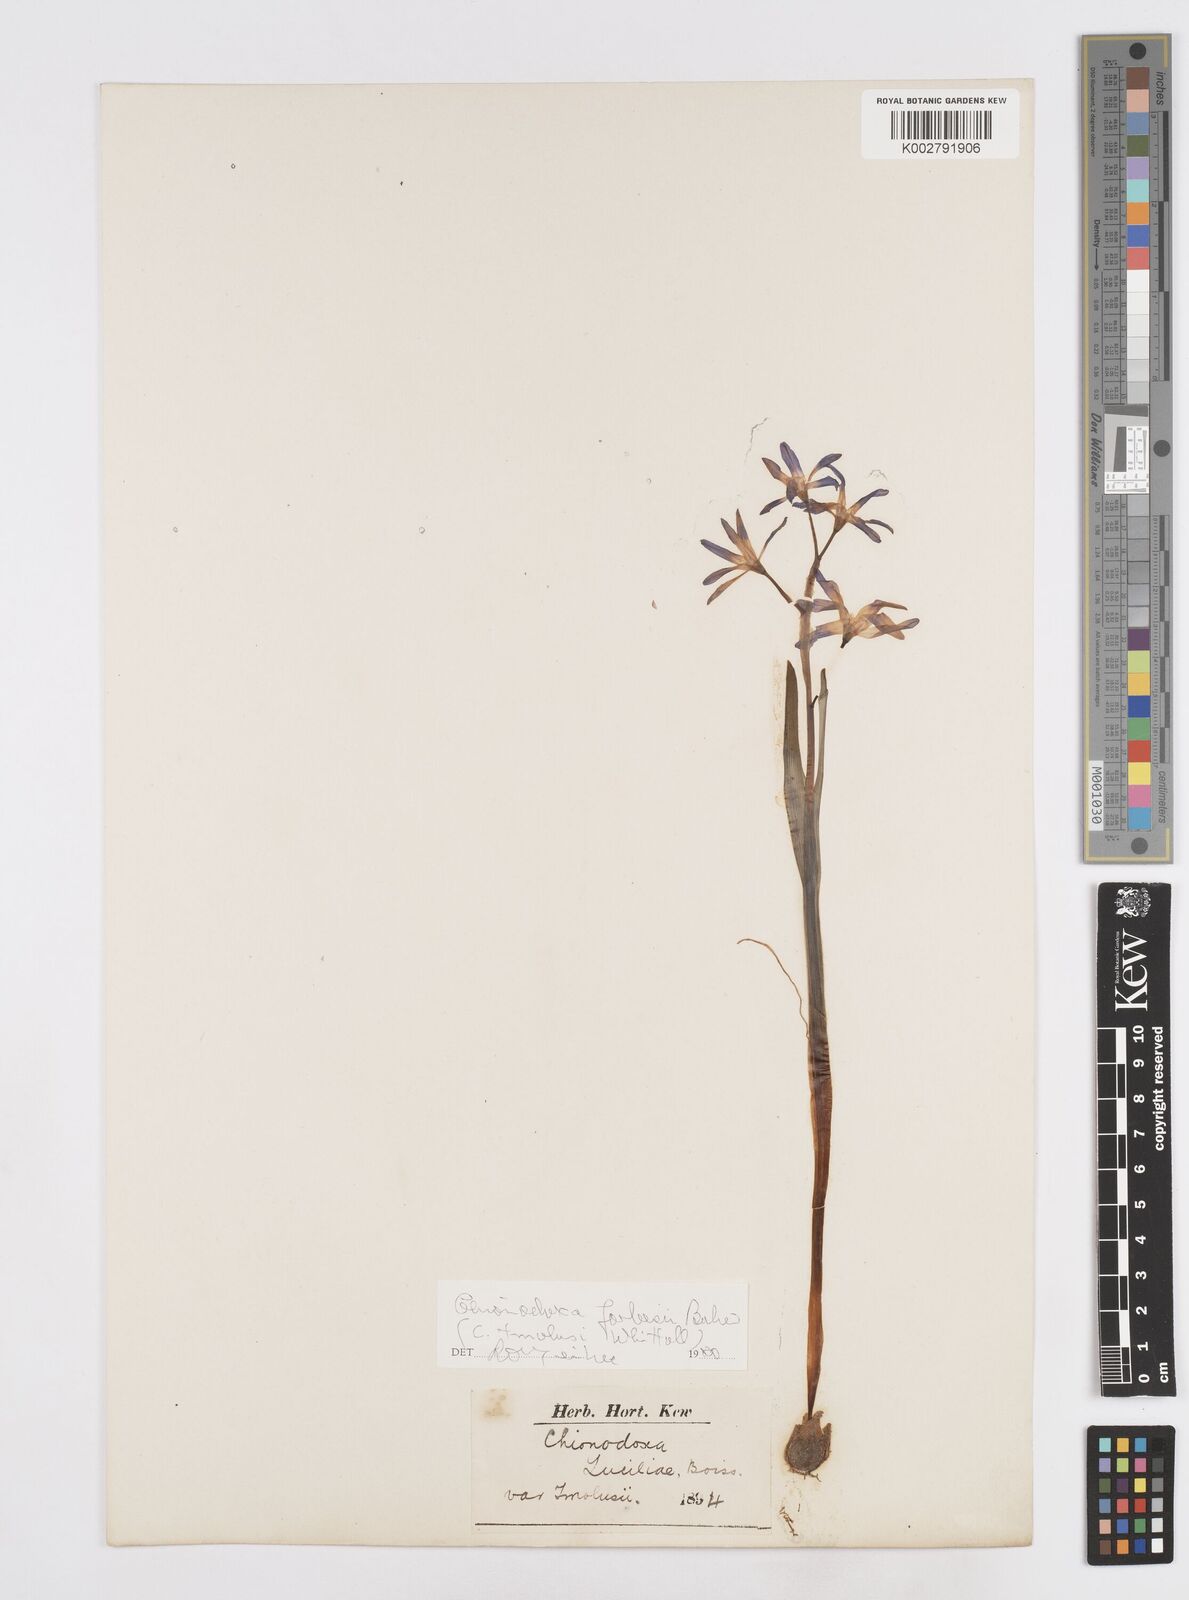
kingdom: Plantae
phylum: Tracheophyta
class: Liliopsida
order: Asparagales
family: Asparagaceae
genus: Scilla
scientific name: Scilla forbesii
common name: Glory-of-the-snow
